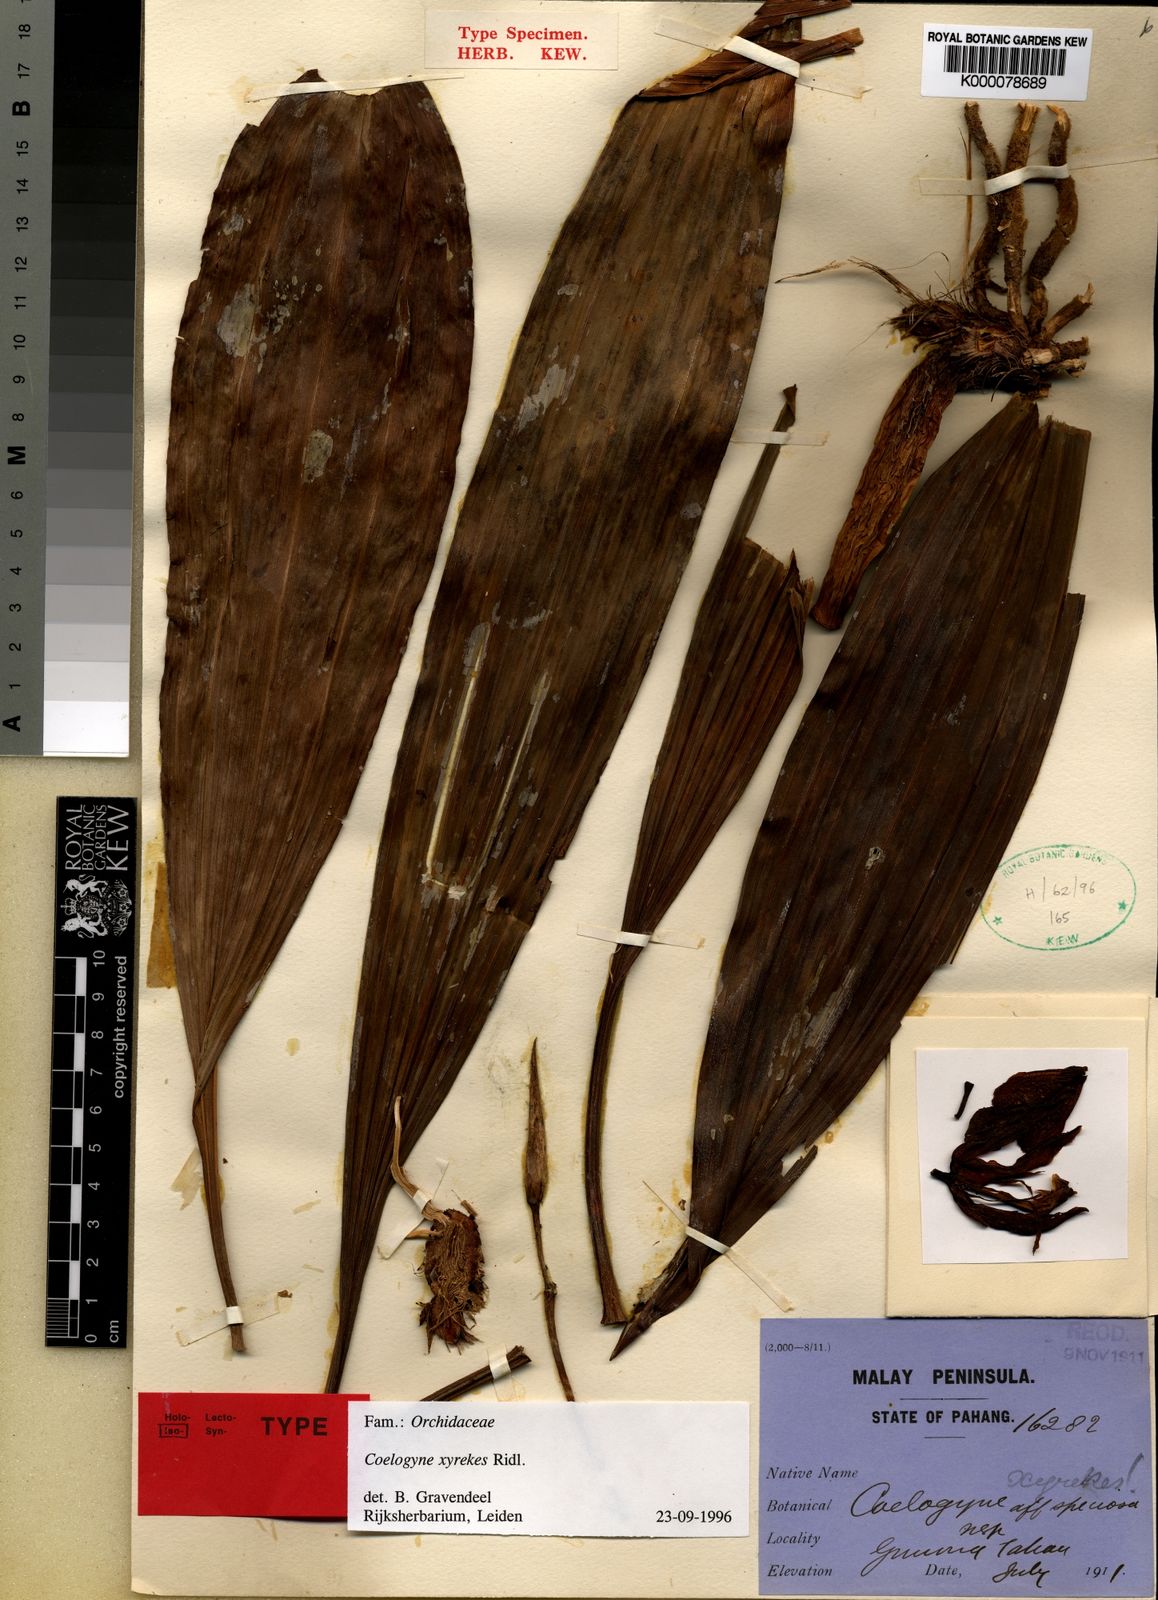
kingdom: Plantae
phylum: Tracheophyta
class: Liliopsida
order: Asparagales
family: Orchidaceae
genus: Coelogyne
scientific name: Coelogyne xyrekes
